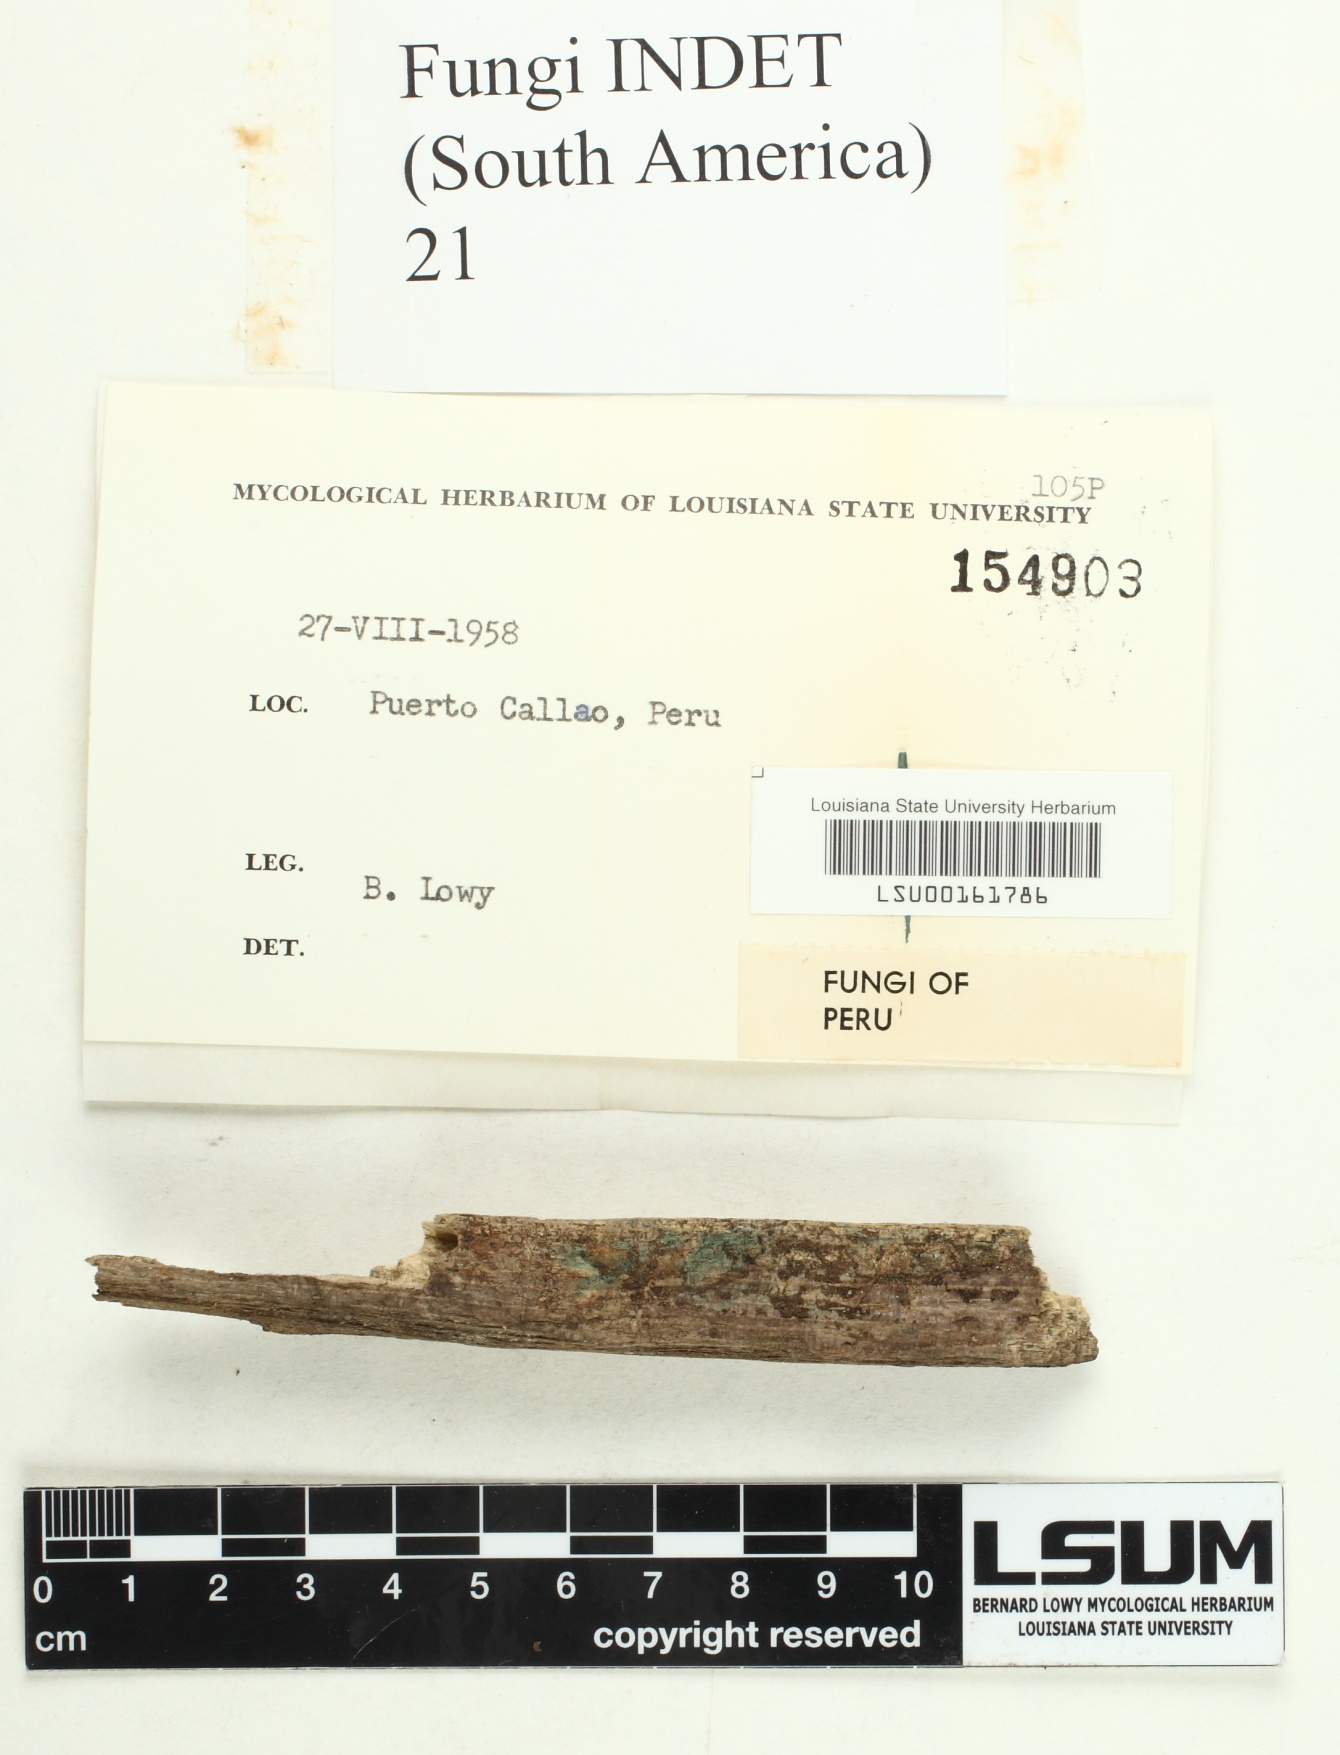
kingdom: Fungi
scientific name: Fungi
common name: Fungi
